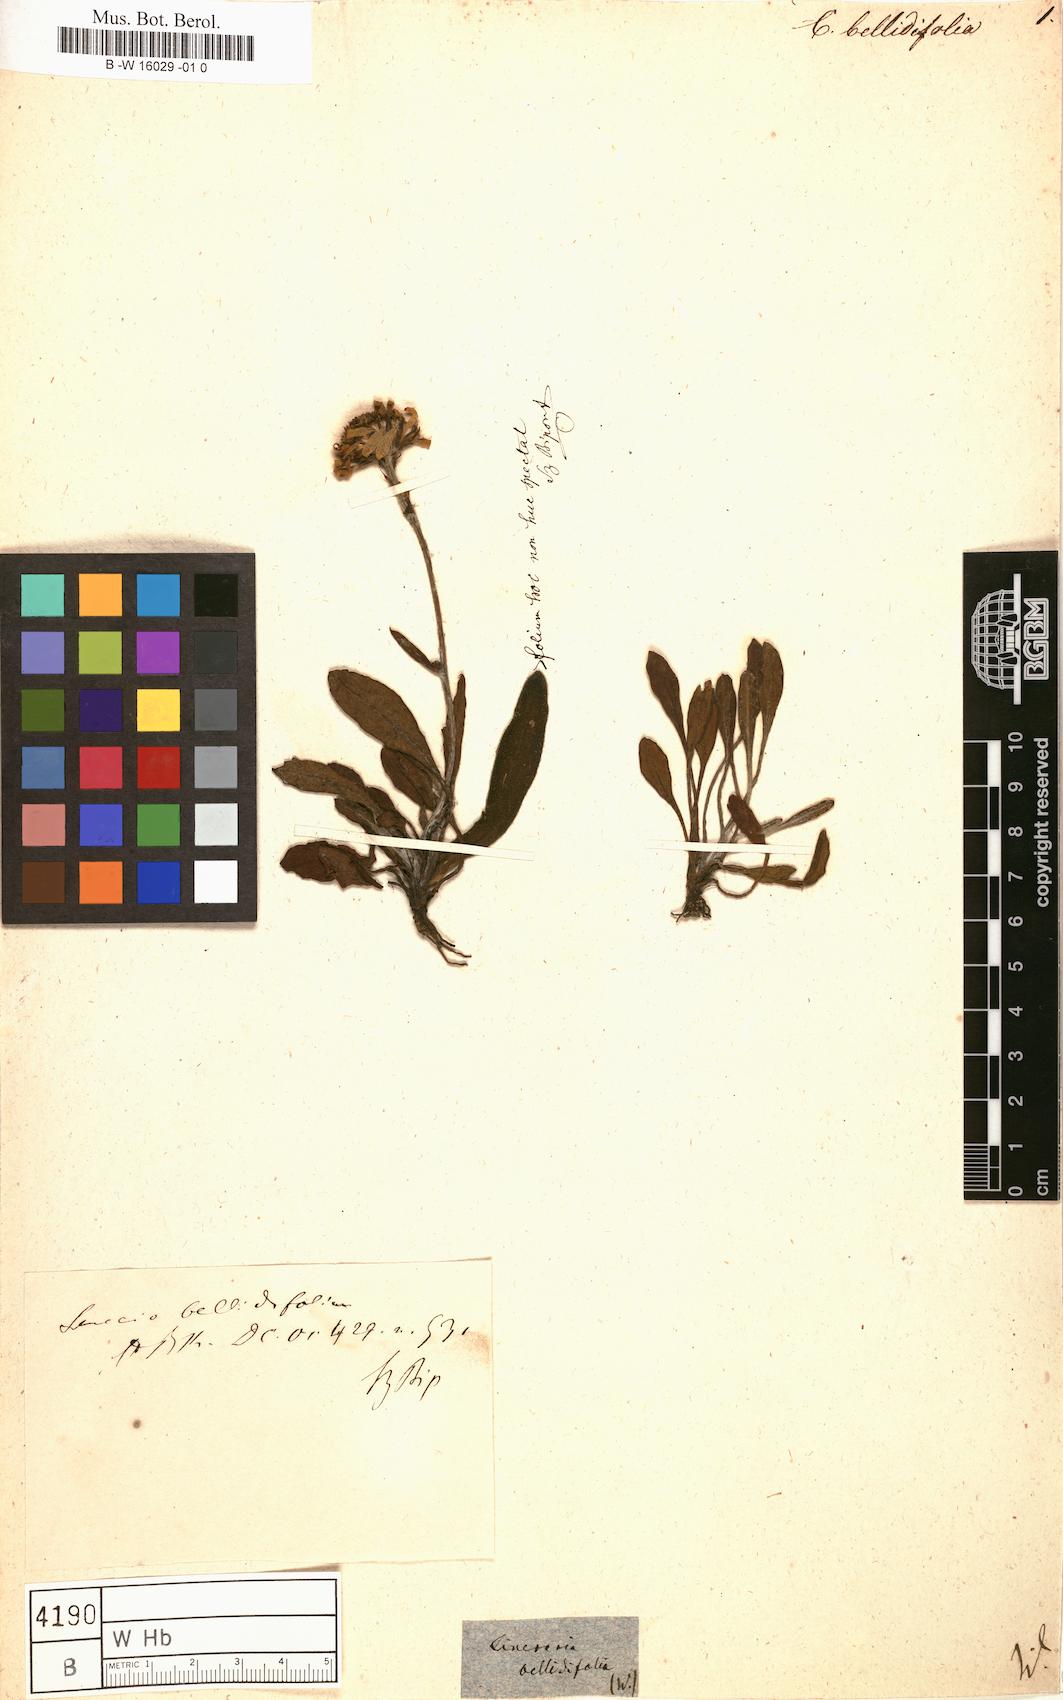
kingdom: Plantae
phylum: Tracheophyta
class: Magnoliopsida
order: Asterales
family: Asteraceae
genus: Cineraria
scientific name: Cineraria
